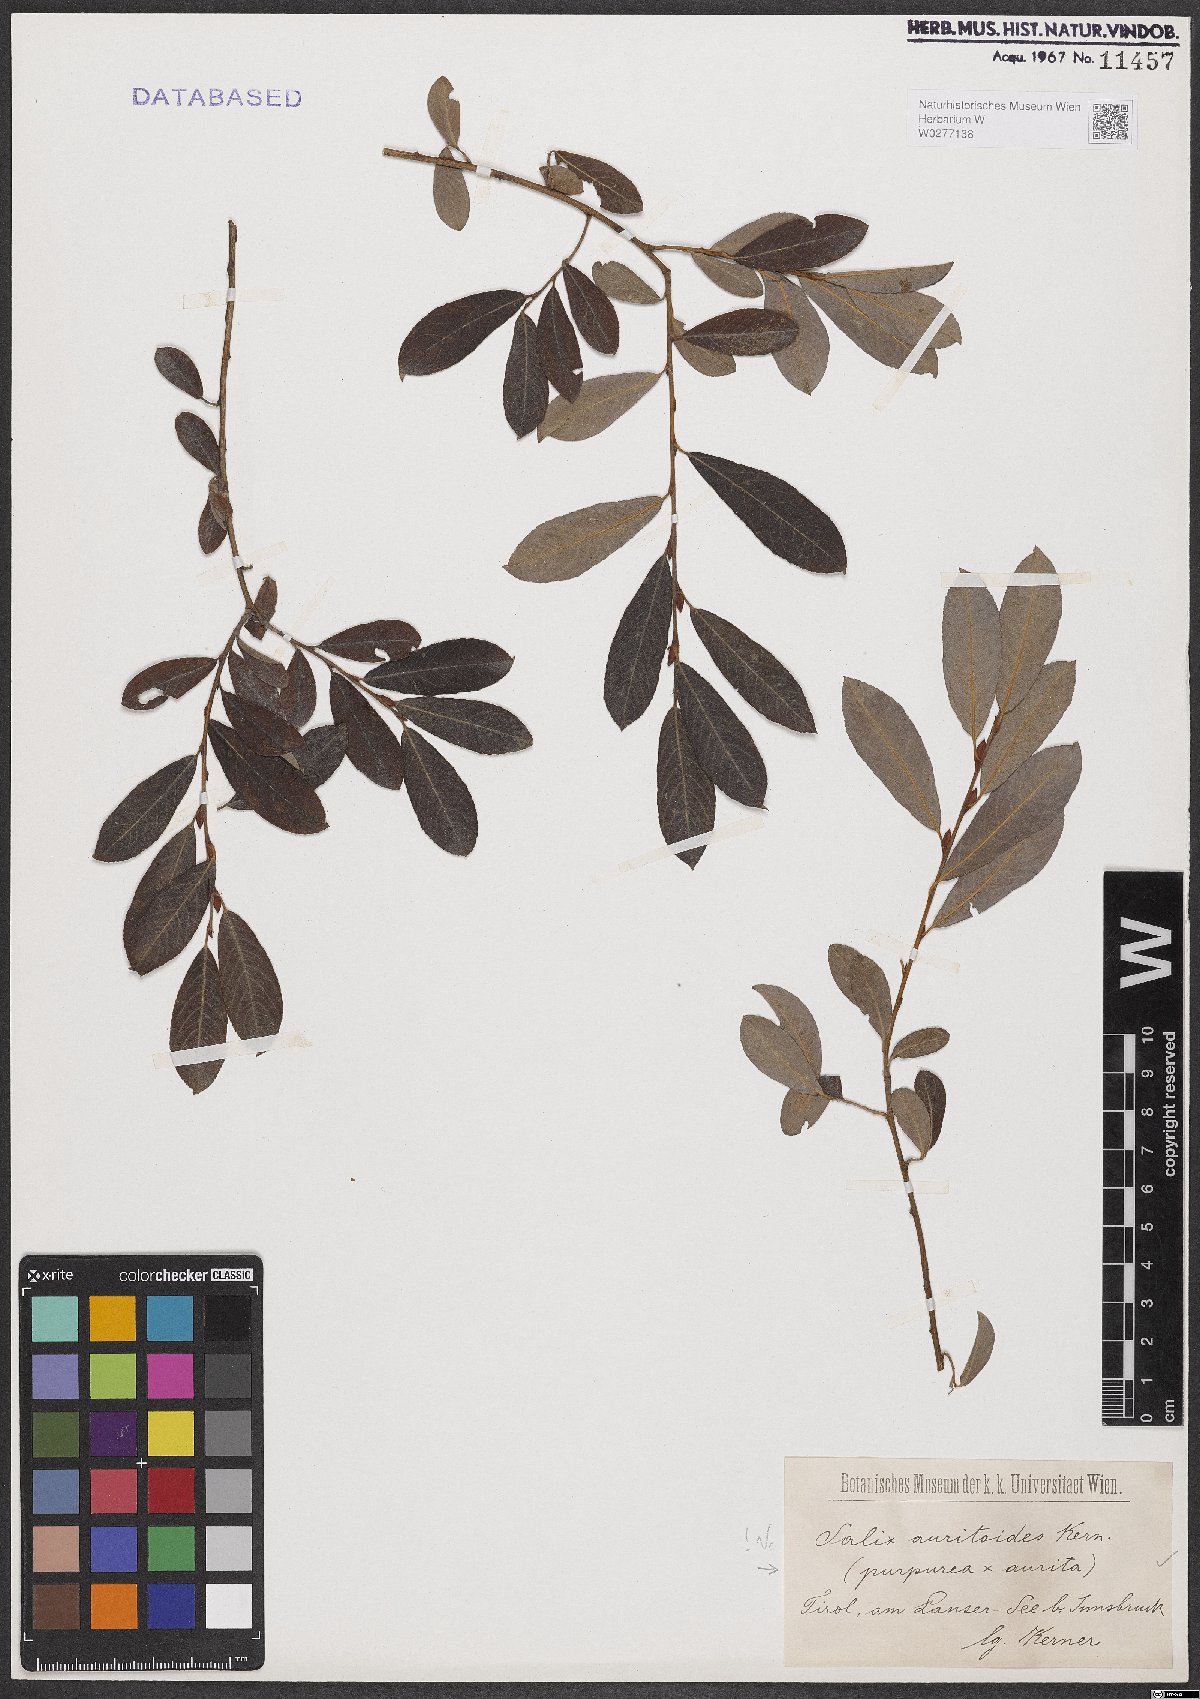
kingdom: Plantae
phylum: Tracheophyta
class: Magnoliopsida
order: Malpighiales
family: Salicaceae
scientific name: Salicaceae
